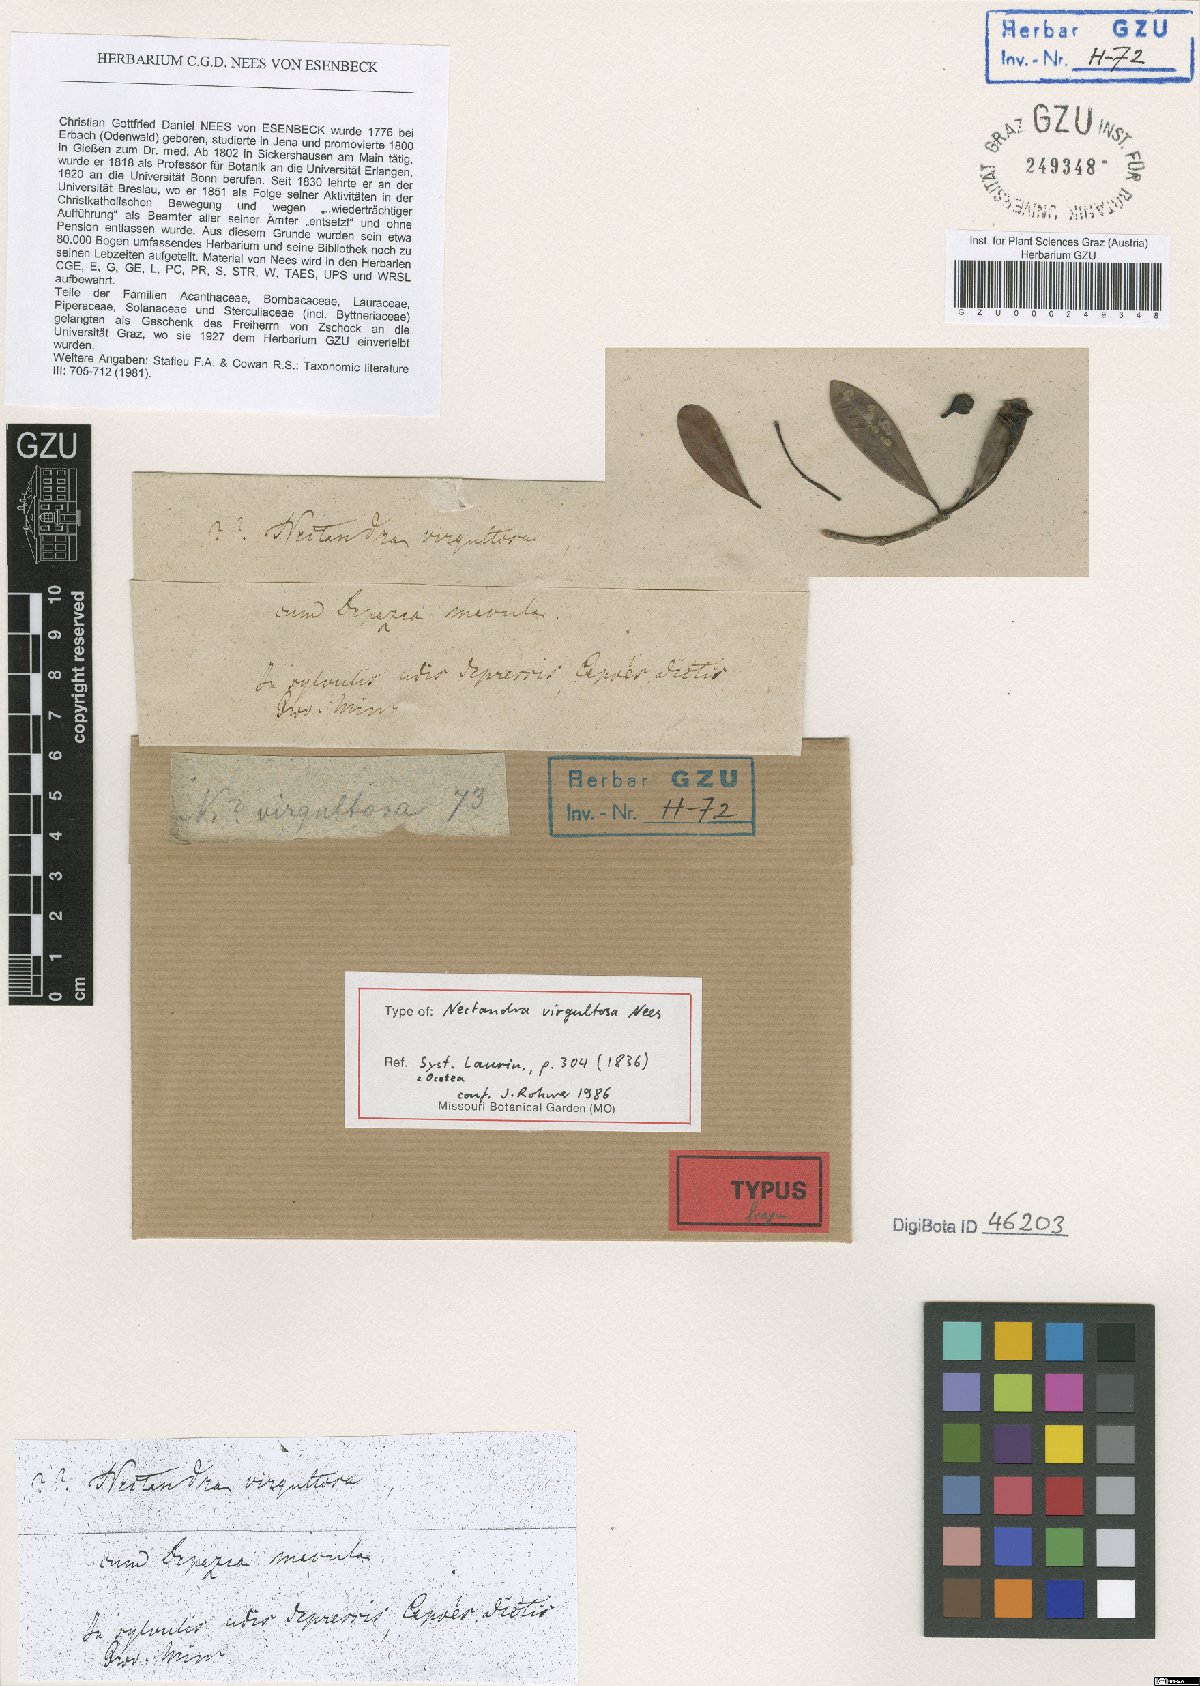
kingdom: Plantae
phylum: Tracheophyta
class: Magnoliopsida
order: Laurales
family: Lauraceae
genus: Ocotea
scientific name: Ocotea virgultosa
